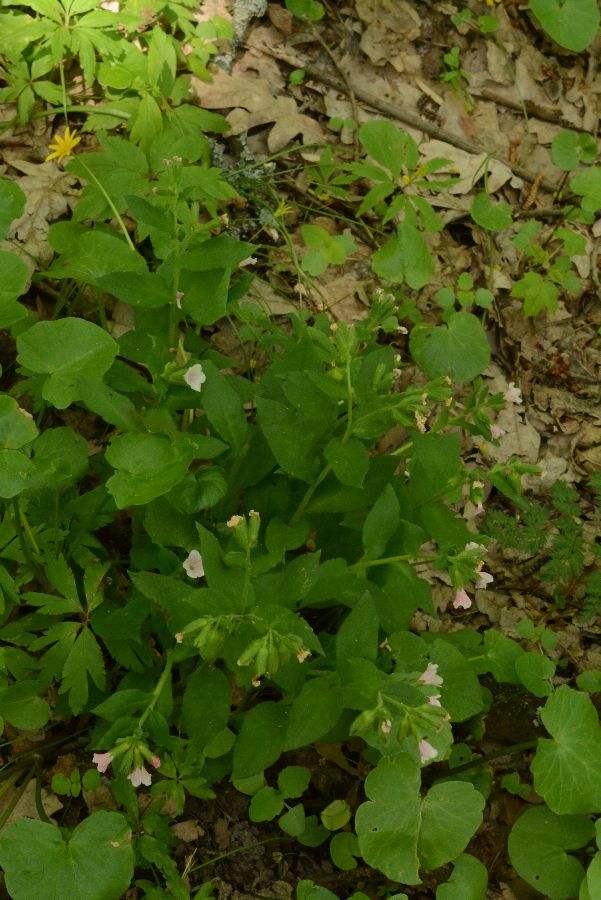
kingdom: Plantae
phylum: Tracheophyta
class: Magnoliopsida
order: Boraginales
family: Boraginaceae
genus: Pulmonaria
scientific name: Pulmonaria
